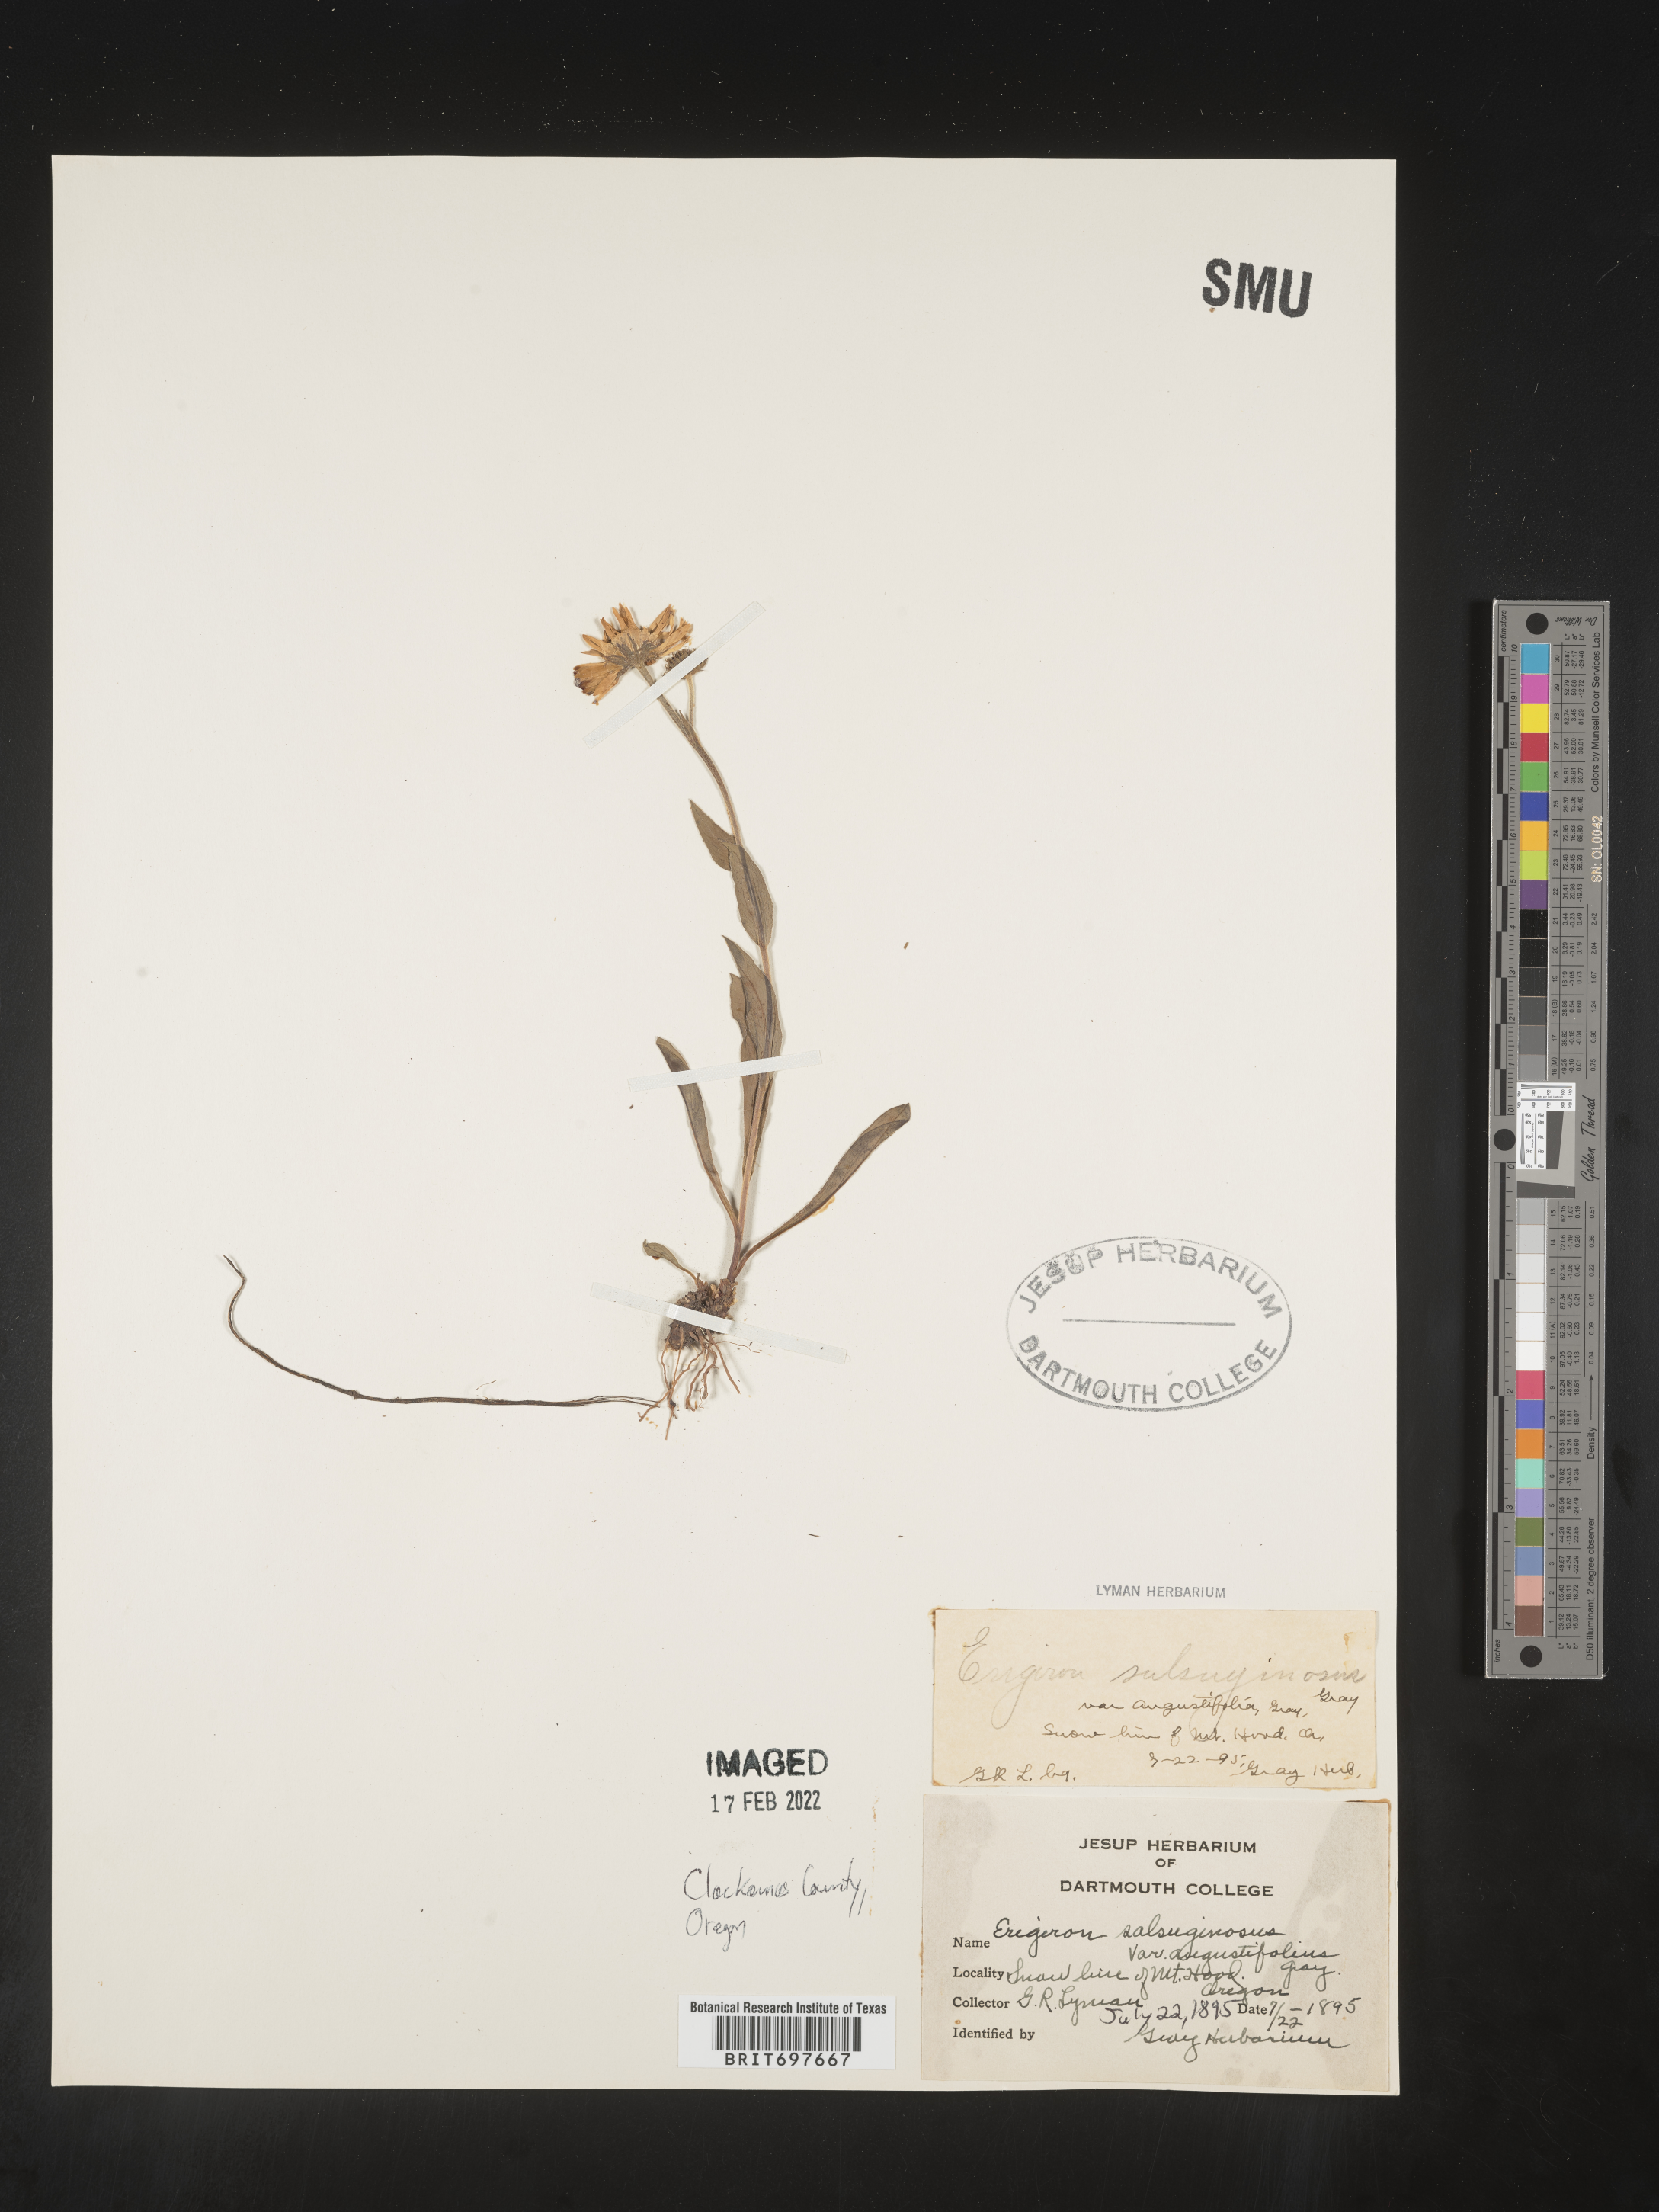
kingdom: Plantae
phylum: Tracheophyta
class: Magnoliopsida
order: Asterales
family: Asteraceae
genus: Erigeron
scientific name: Erigeron glacialis
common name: Subalpine fleabane
